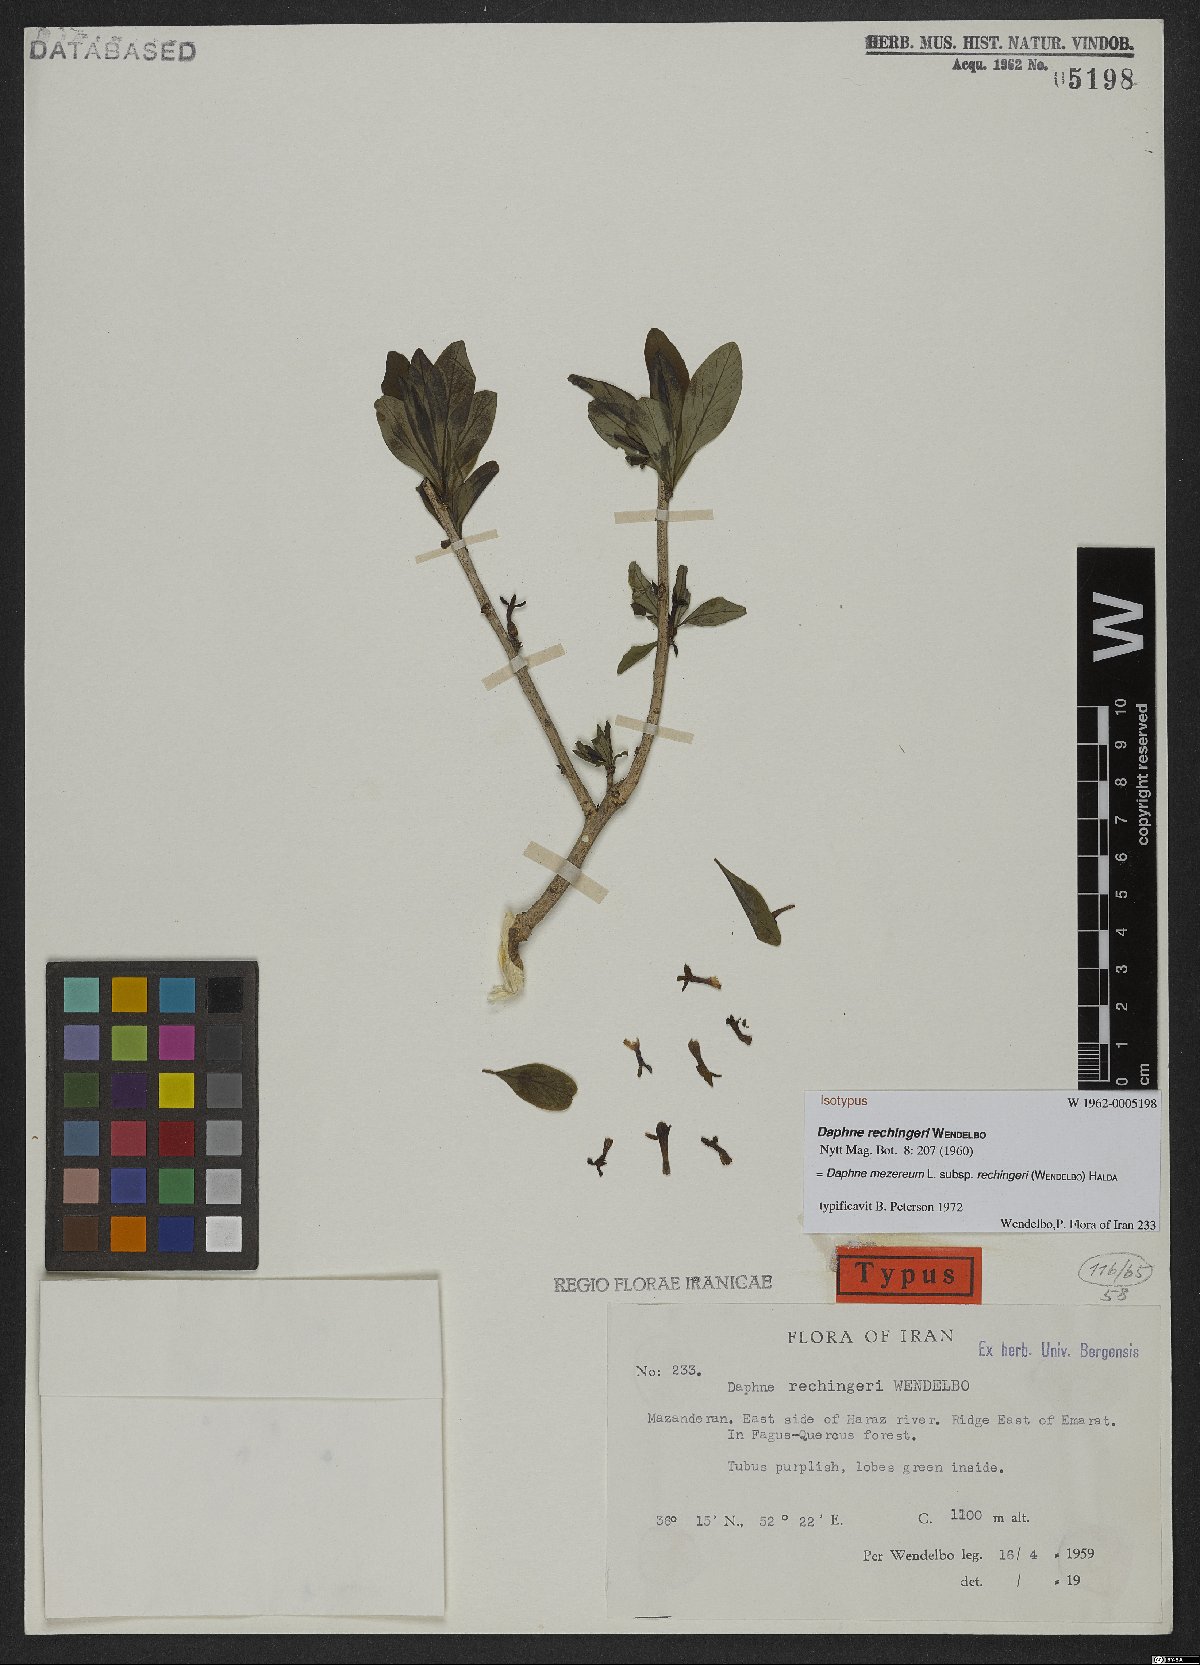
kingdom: Plantae
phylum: Tracheophyta
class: Magnoliopsida
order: Malvales
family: Thymelaeaceae
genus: Daphne
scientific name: Daphne mezereum
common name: Mezereon
